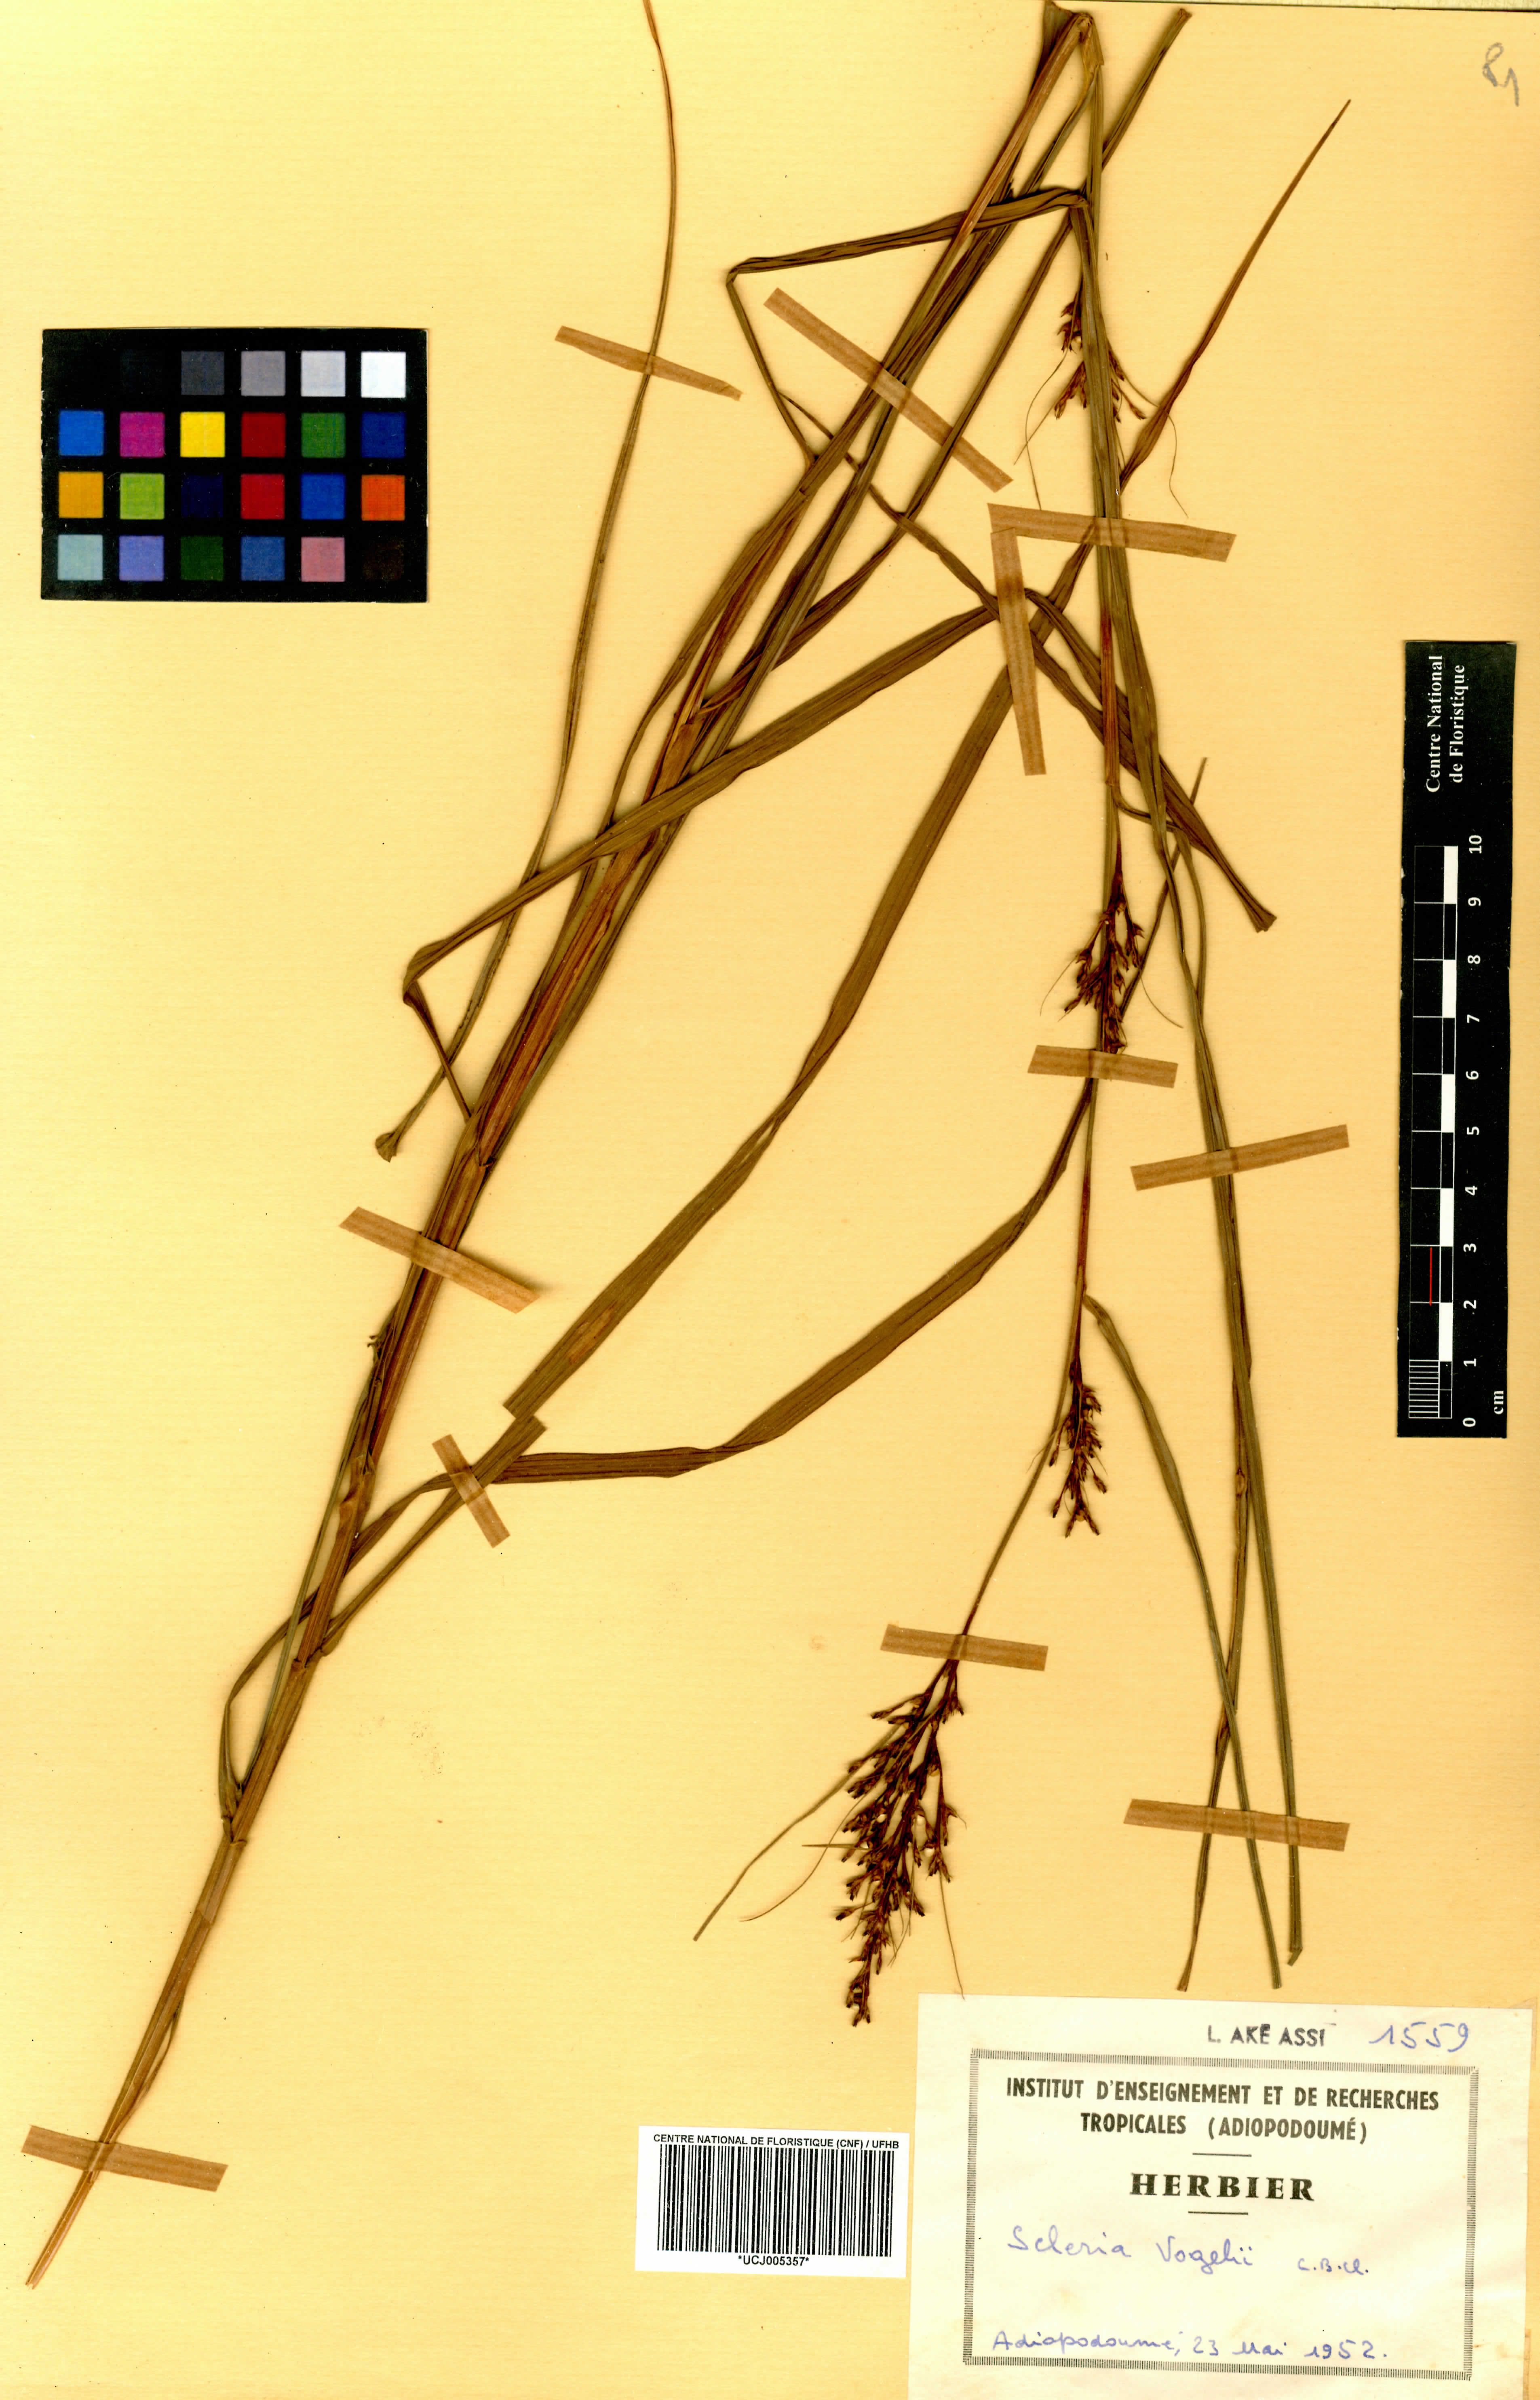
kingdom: Plantae
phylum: Tracheophyta
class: Liliopsida
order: Poales
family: Cyperaceae
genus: Scleria
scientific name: Scleria vogelii
